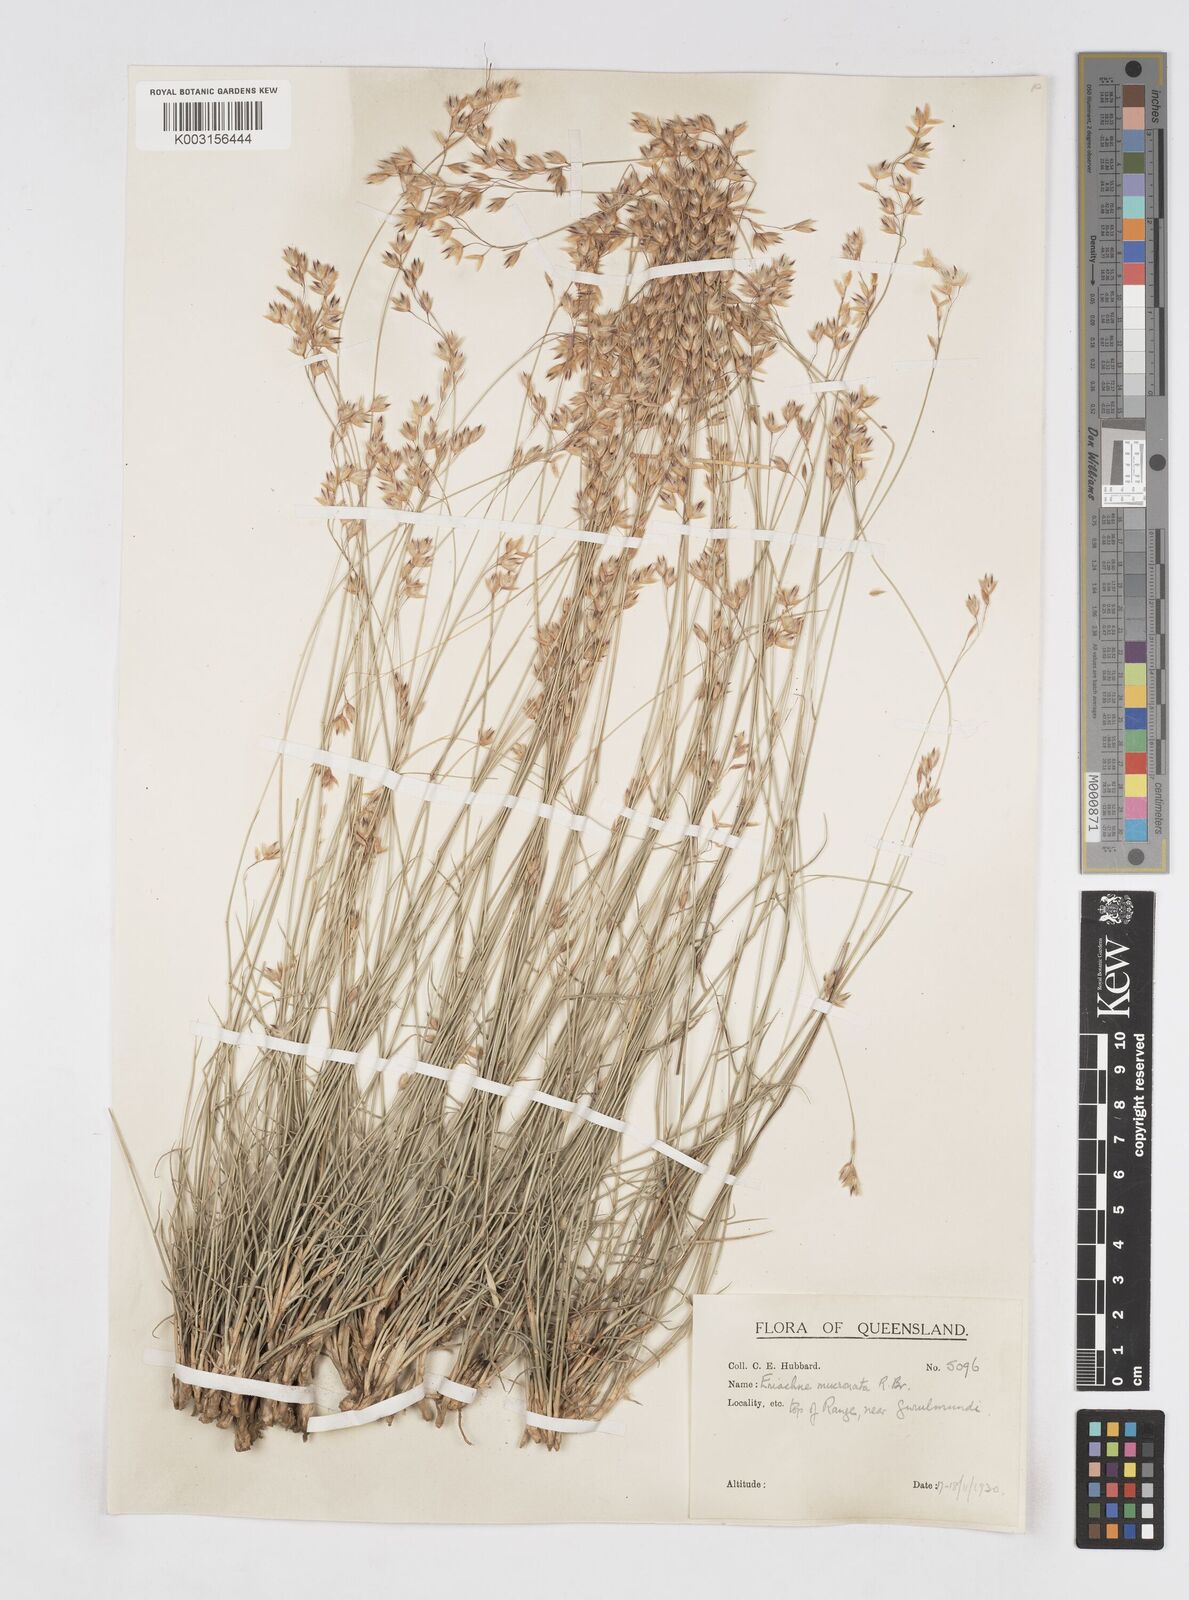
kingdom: Plantae
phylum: Tracheophyta
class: Liliopsida
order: Poales
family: Poaceae
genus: Eriachne
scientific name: Eriachne mucronata
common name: Mountain wanderrie grass
